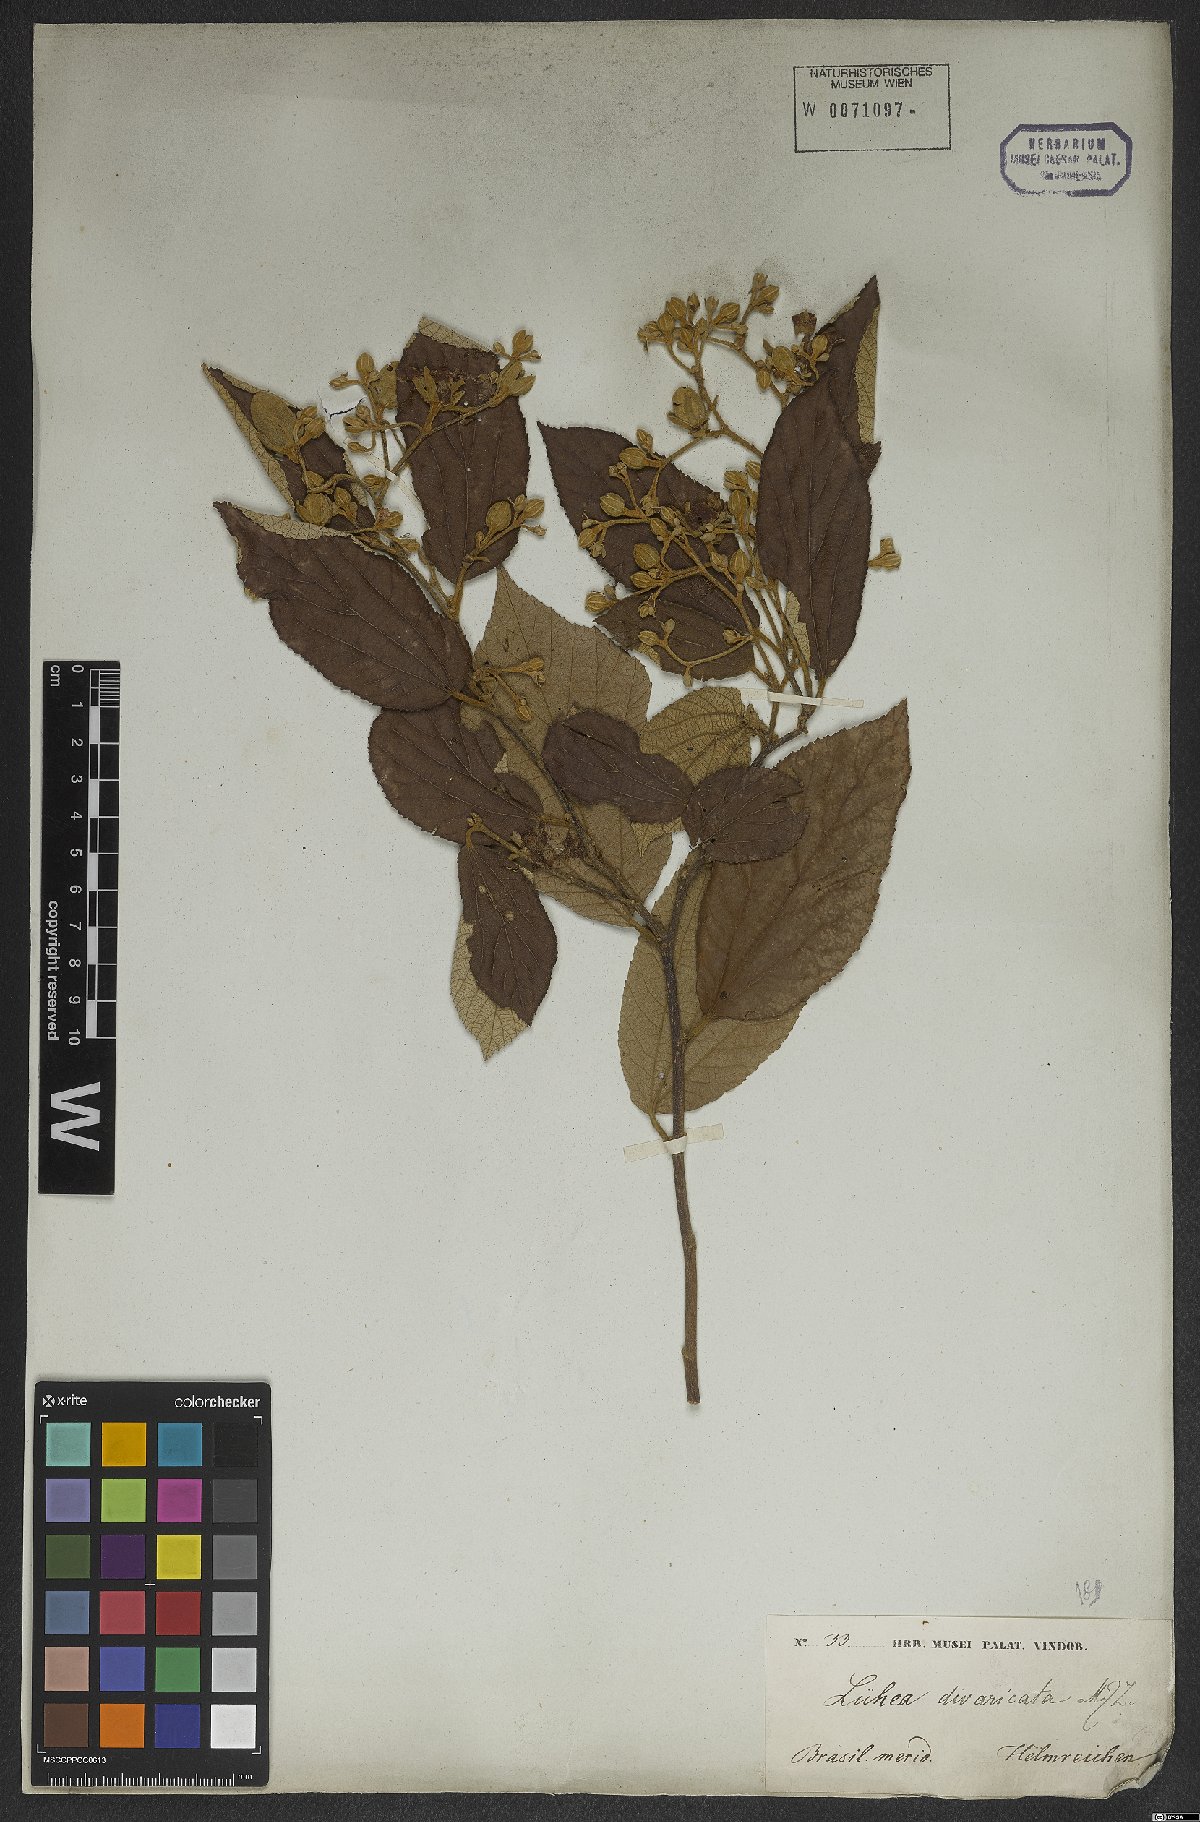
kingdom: Plantae
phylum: Tracheophyta
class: Magnoliopsida
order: Malvales
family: Malvaceae
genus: Luehea
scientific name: Luehea divaricata
